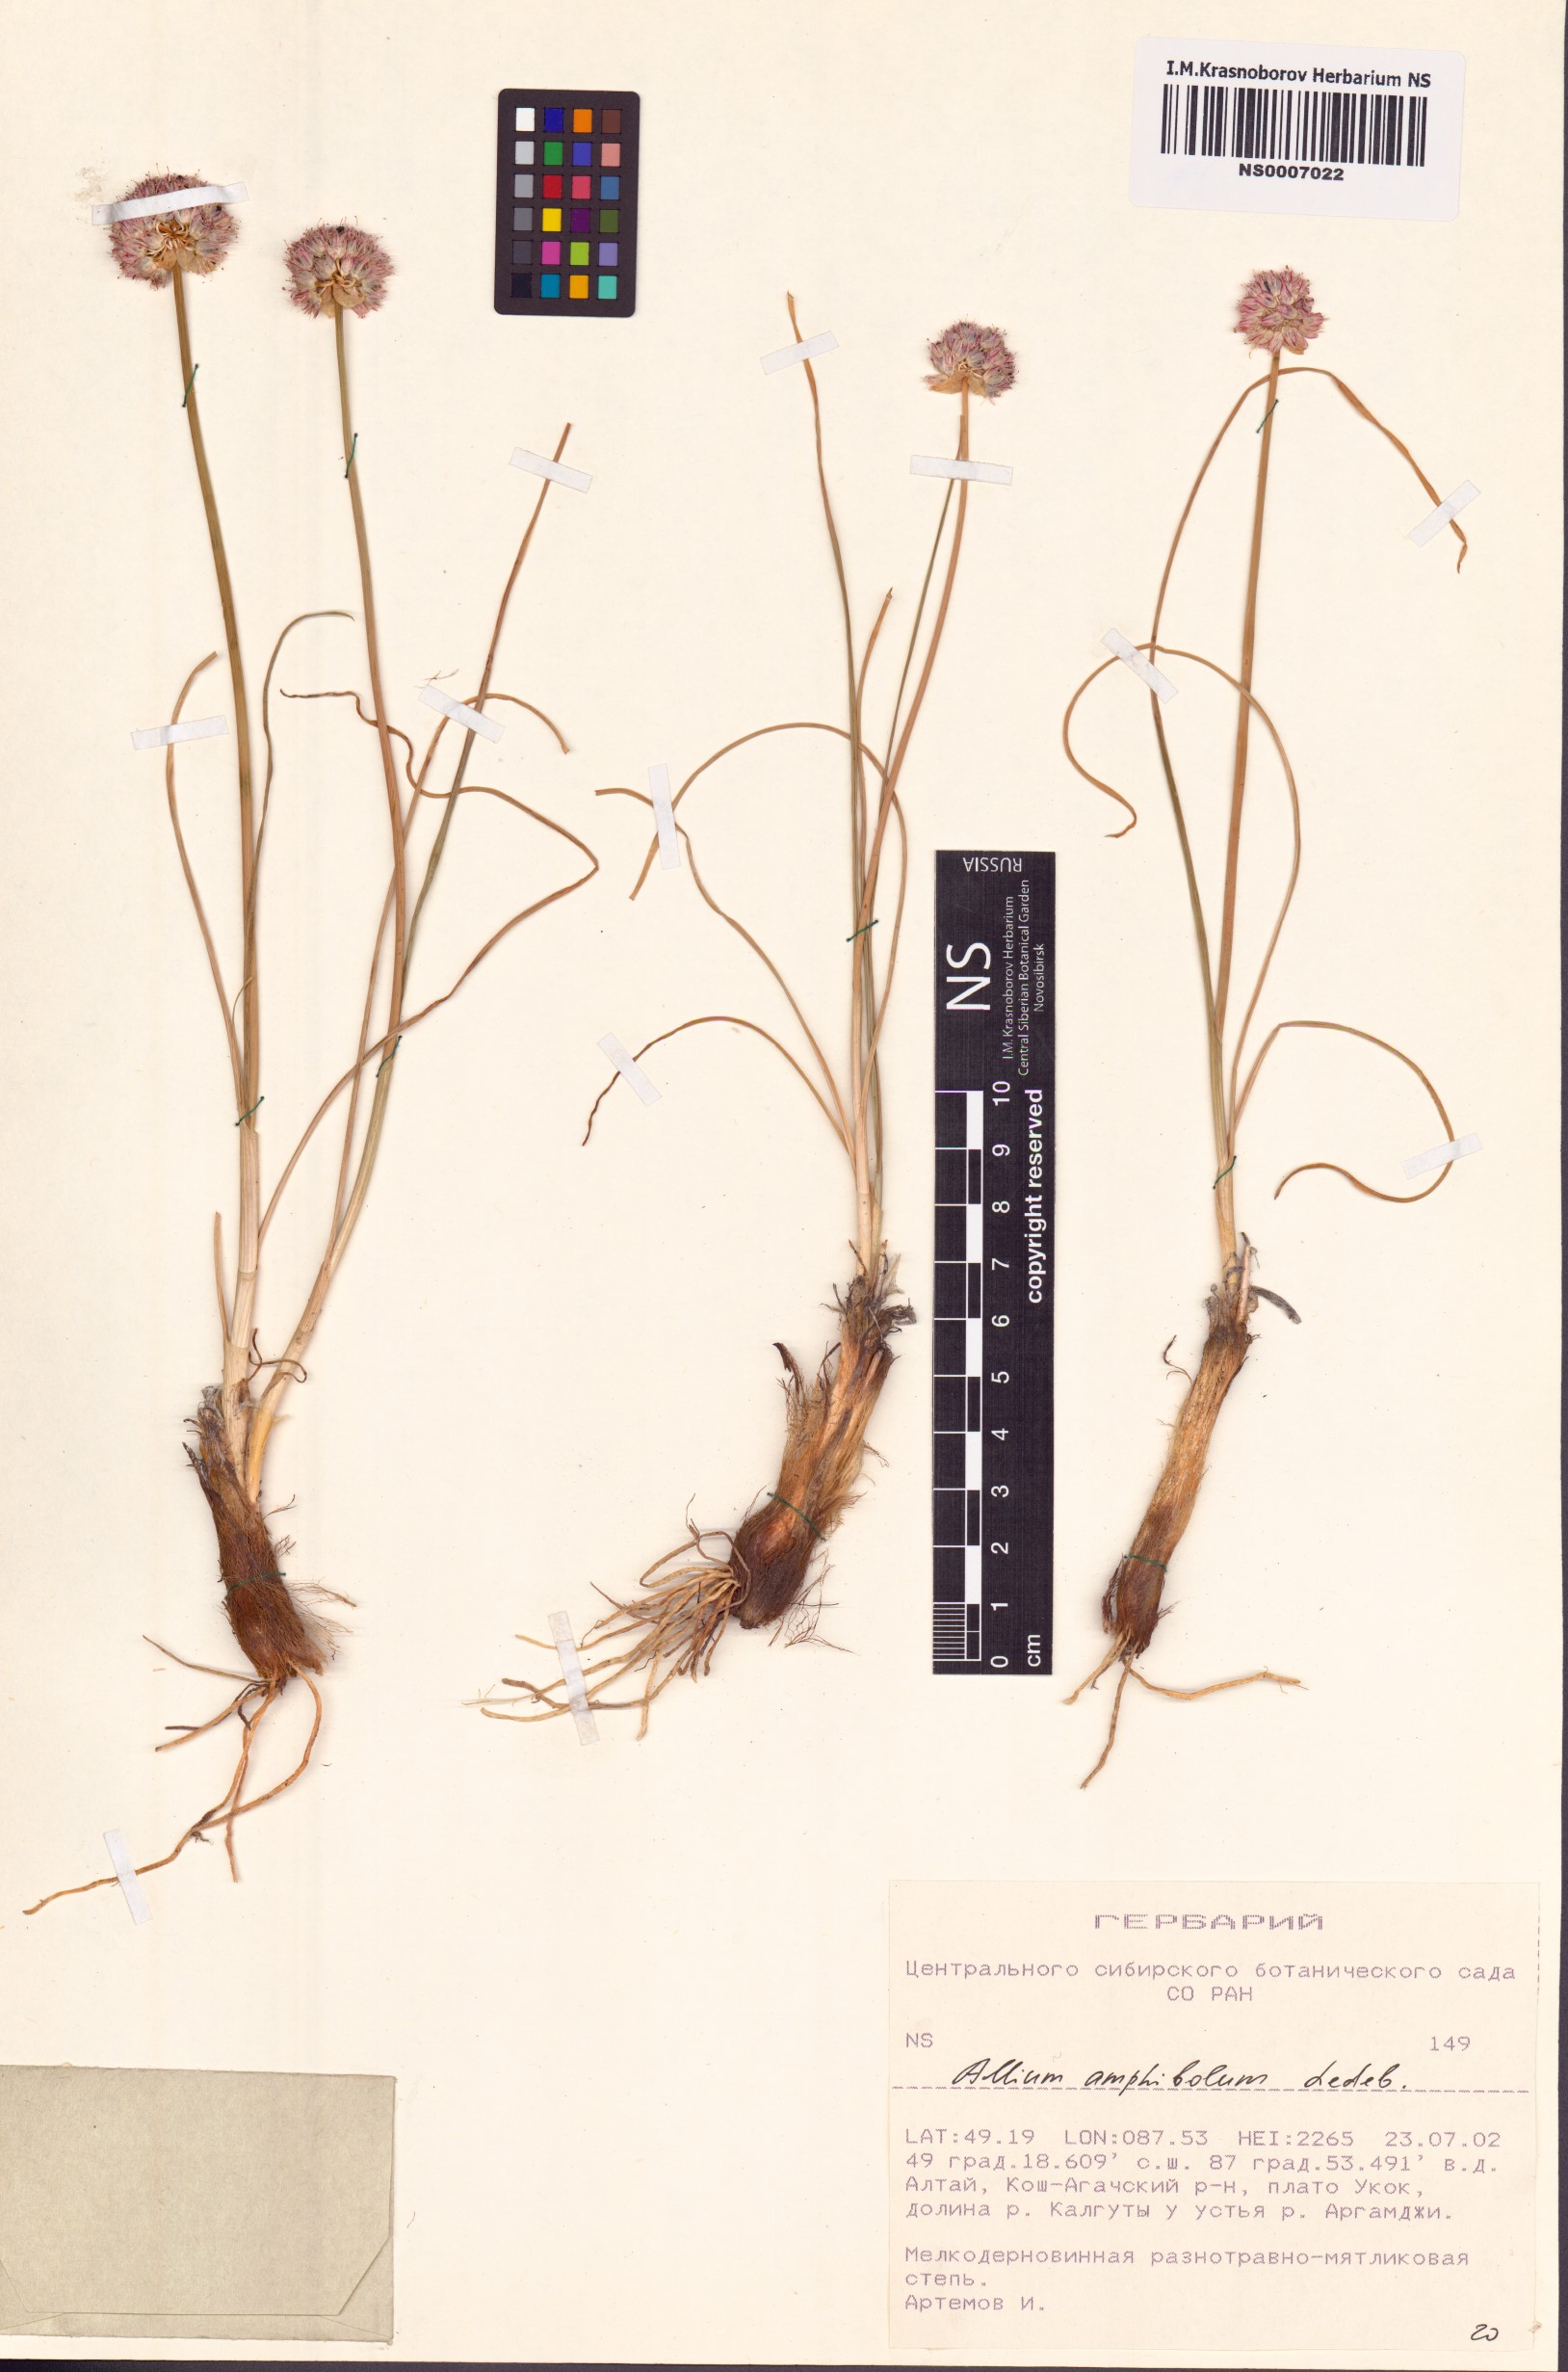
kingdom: Plantae
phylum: Tracheophyta
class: Liliopsida
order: Asparagales
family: Amaryllidaceae
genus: Allium
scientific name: Allium amphibolum
